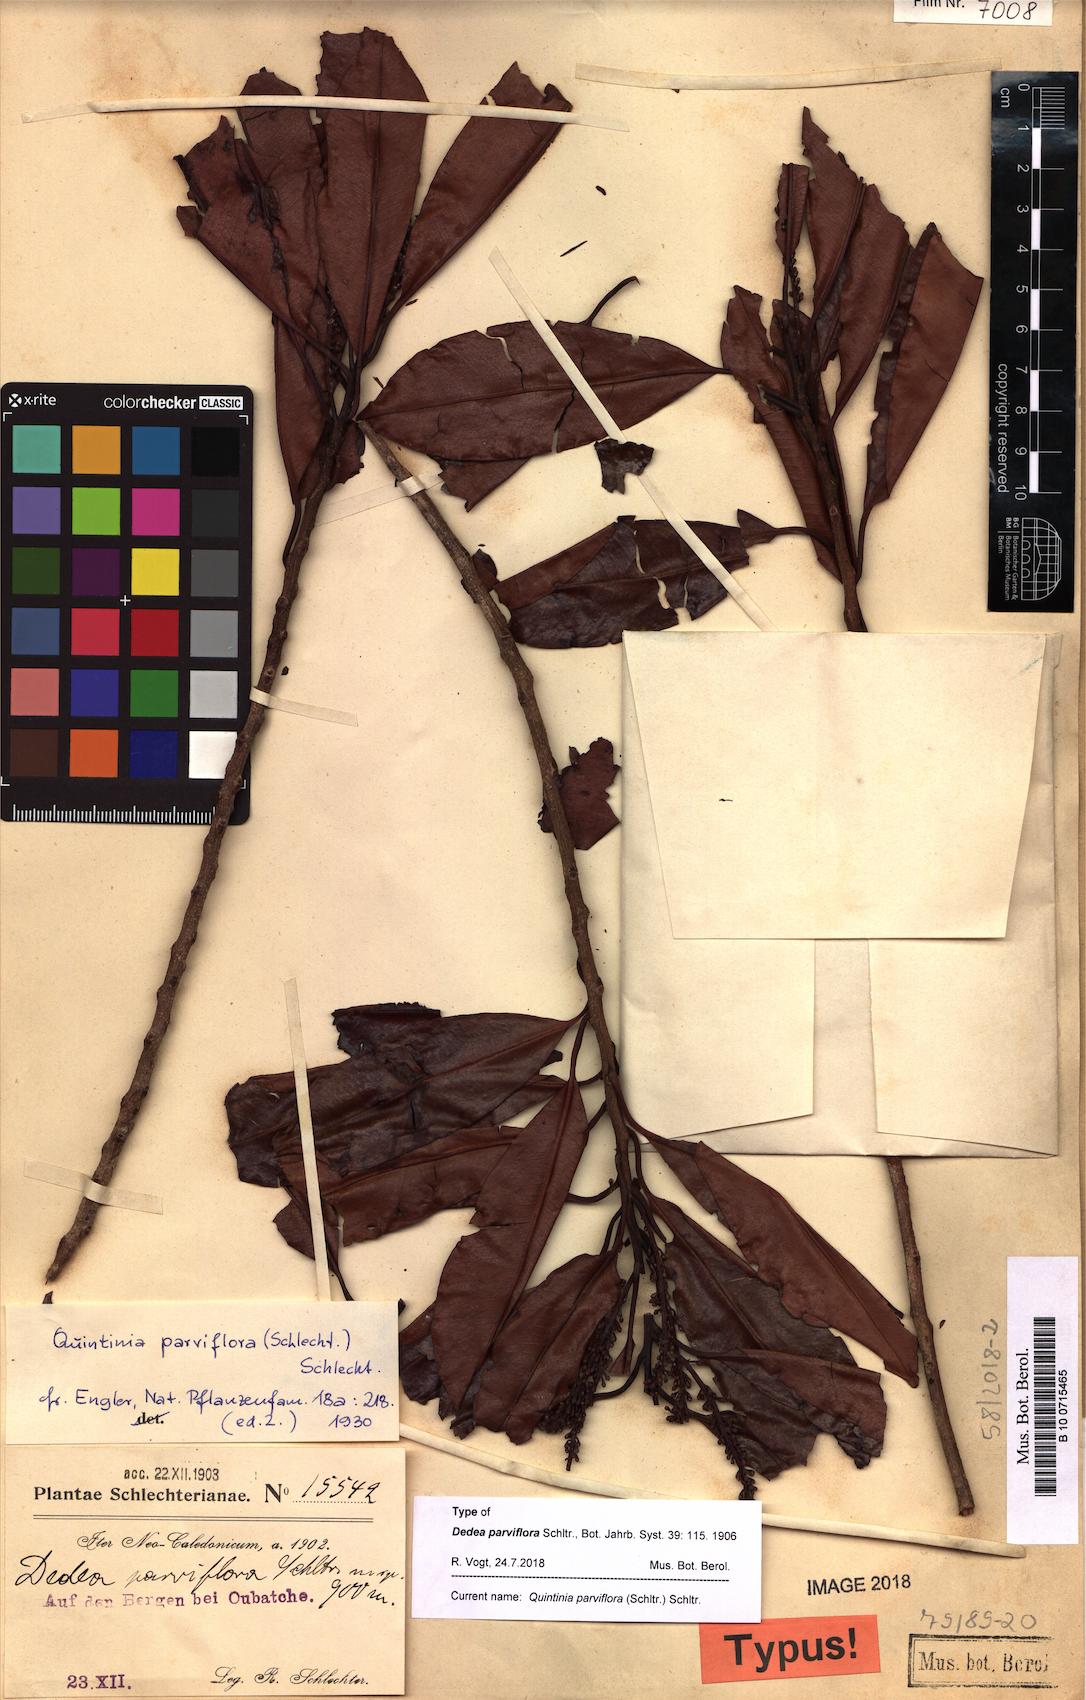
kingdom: Plantae
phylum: Tracheophyta
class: Magnoliopsida
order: Paracryphiales
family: Paracryphiaceae
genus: Quintinia
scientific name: Quintinia media
